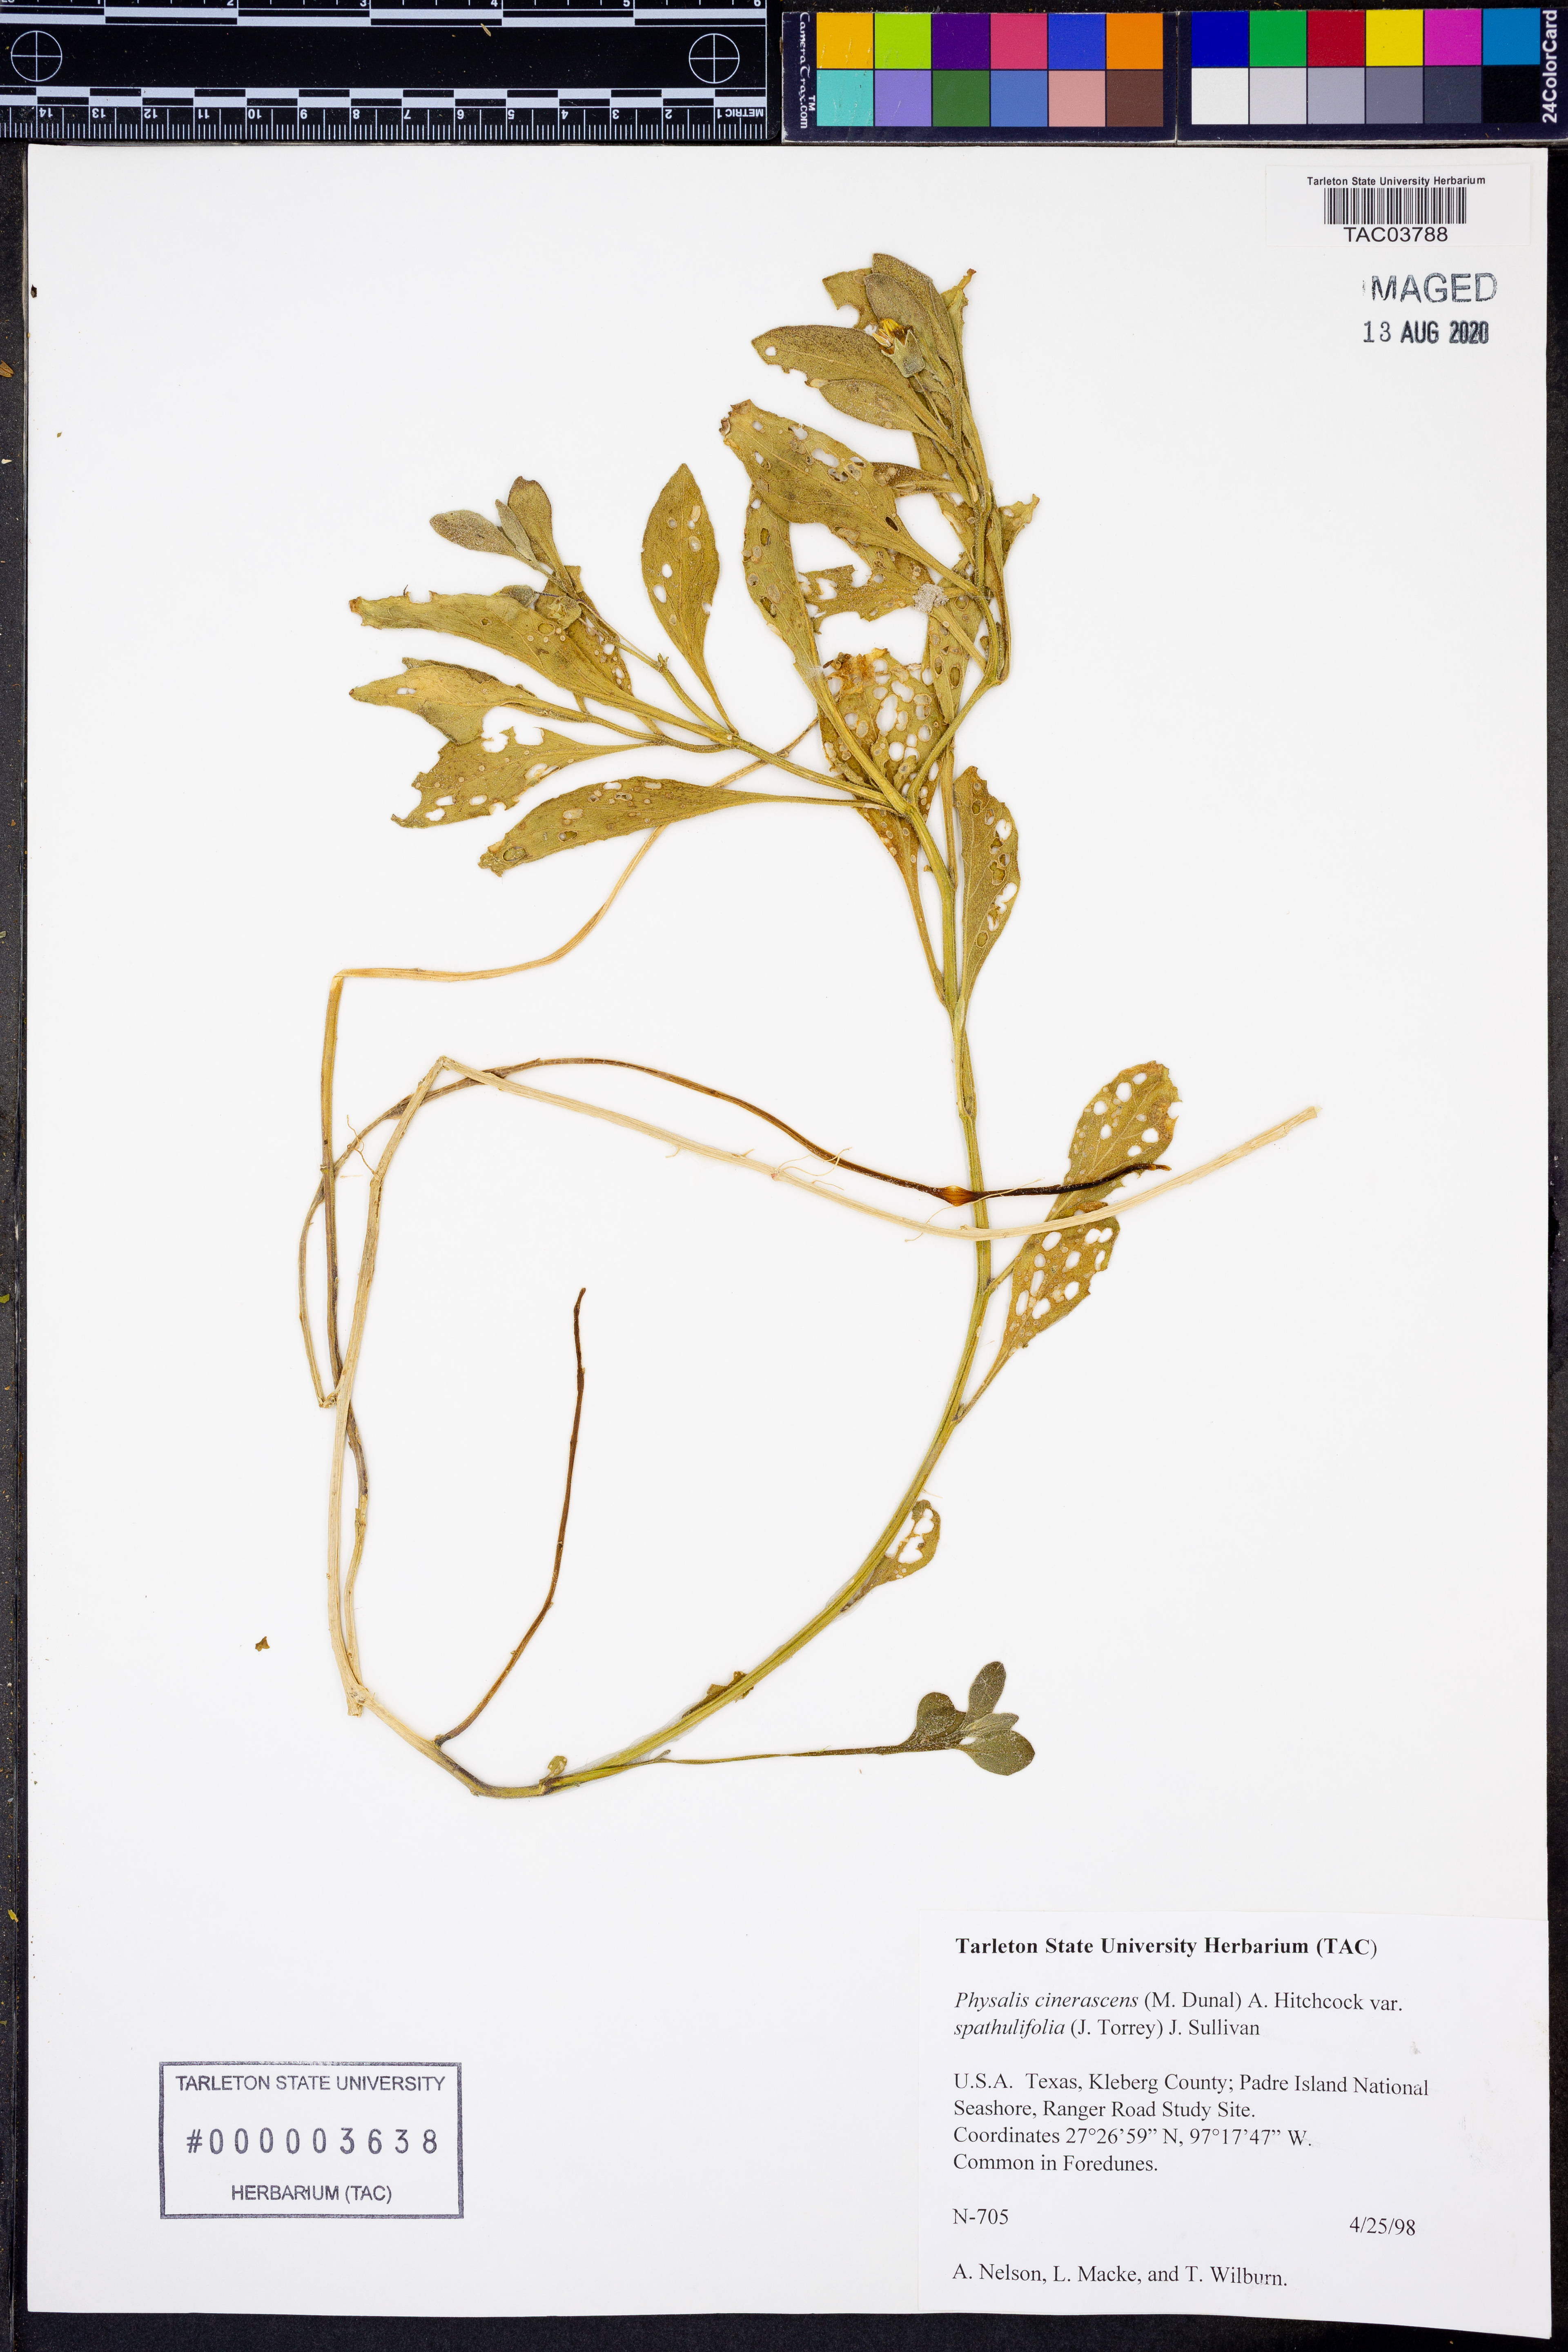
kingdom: Plantae
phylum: Tracheophyta
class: Magnoliopsida
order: Solanales
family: Solanaceae
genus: Physalis
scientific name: Physalis cinerascens
